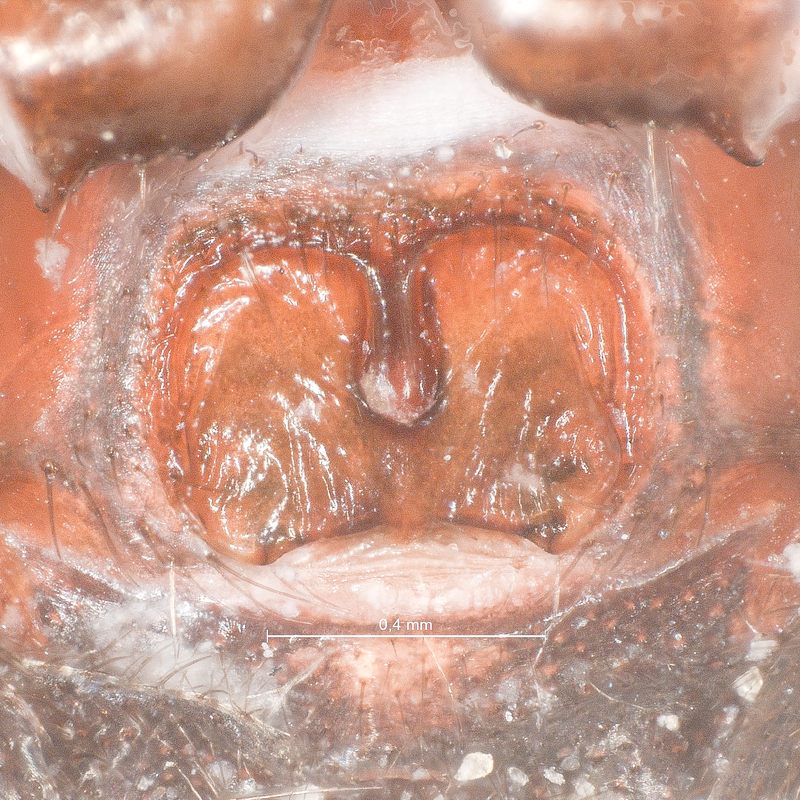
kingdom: Animalia
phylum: Arthropoda
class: Arachnida
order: Araneae
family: Theridiidae
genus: Asagena
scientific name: Asagena phalerata
